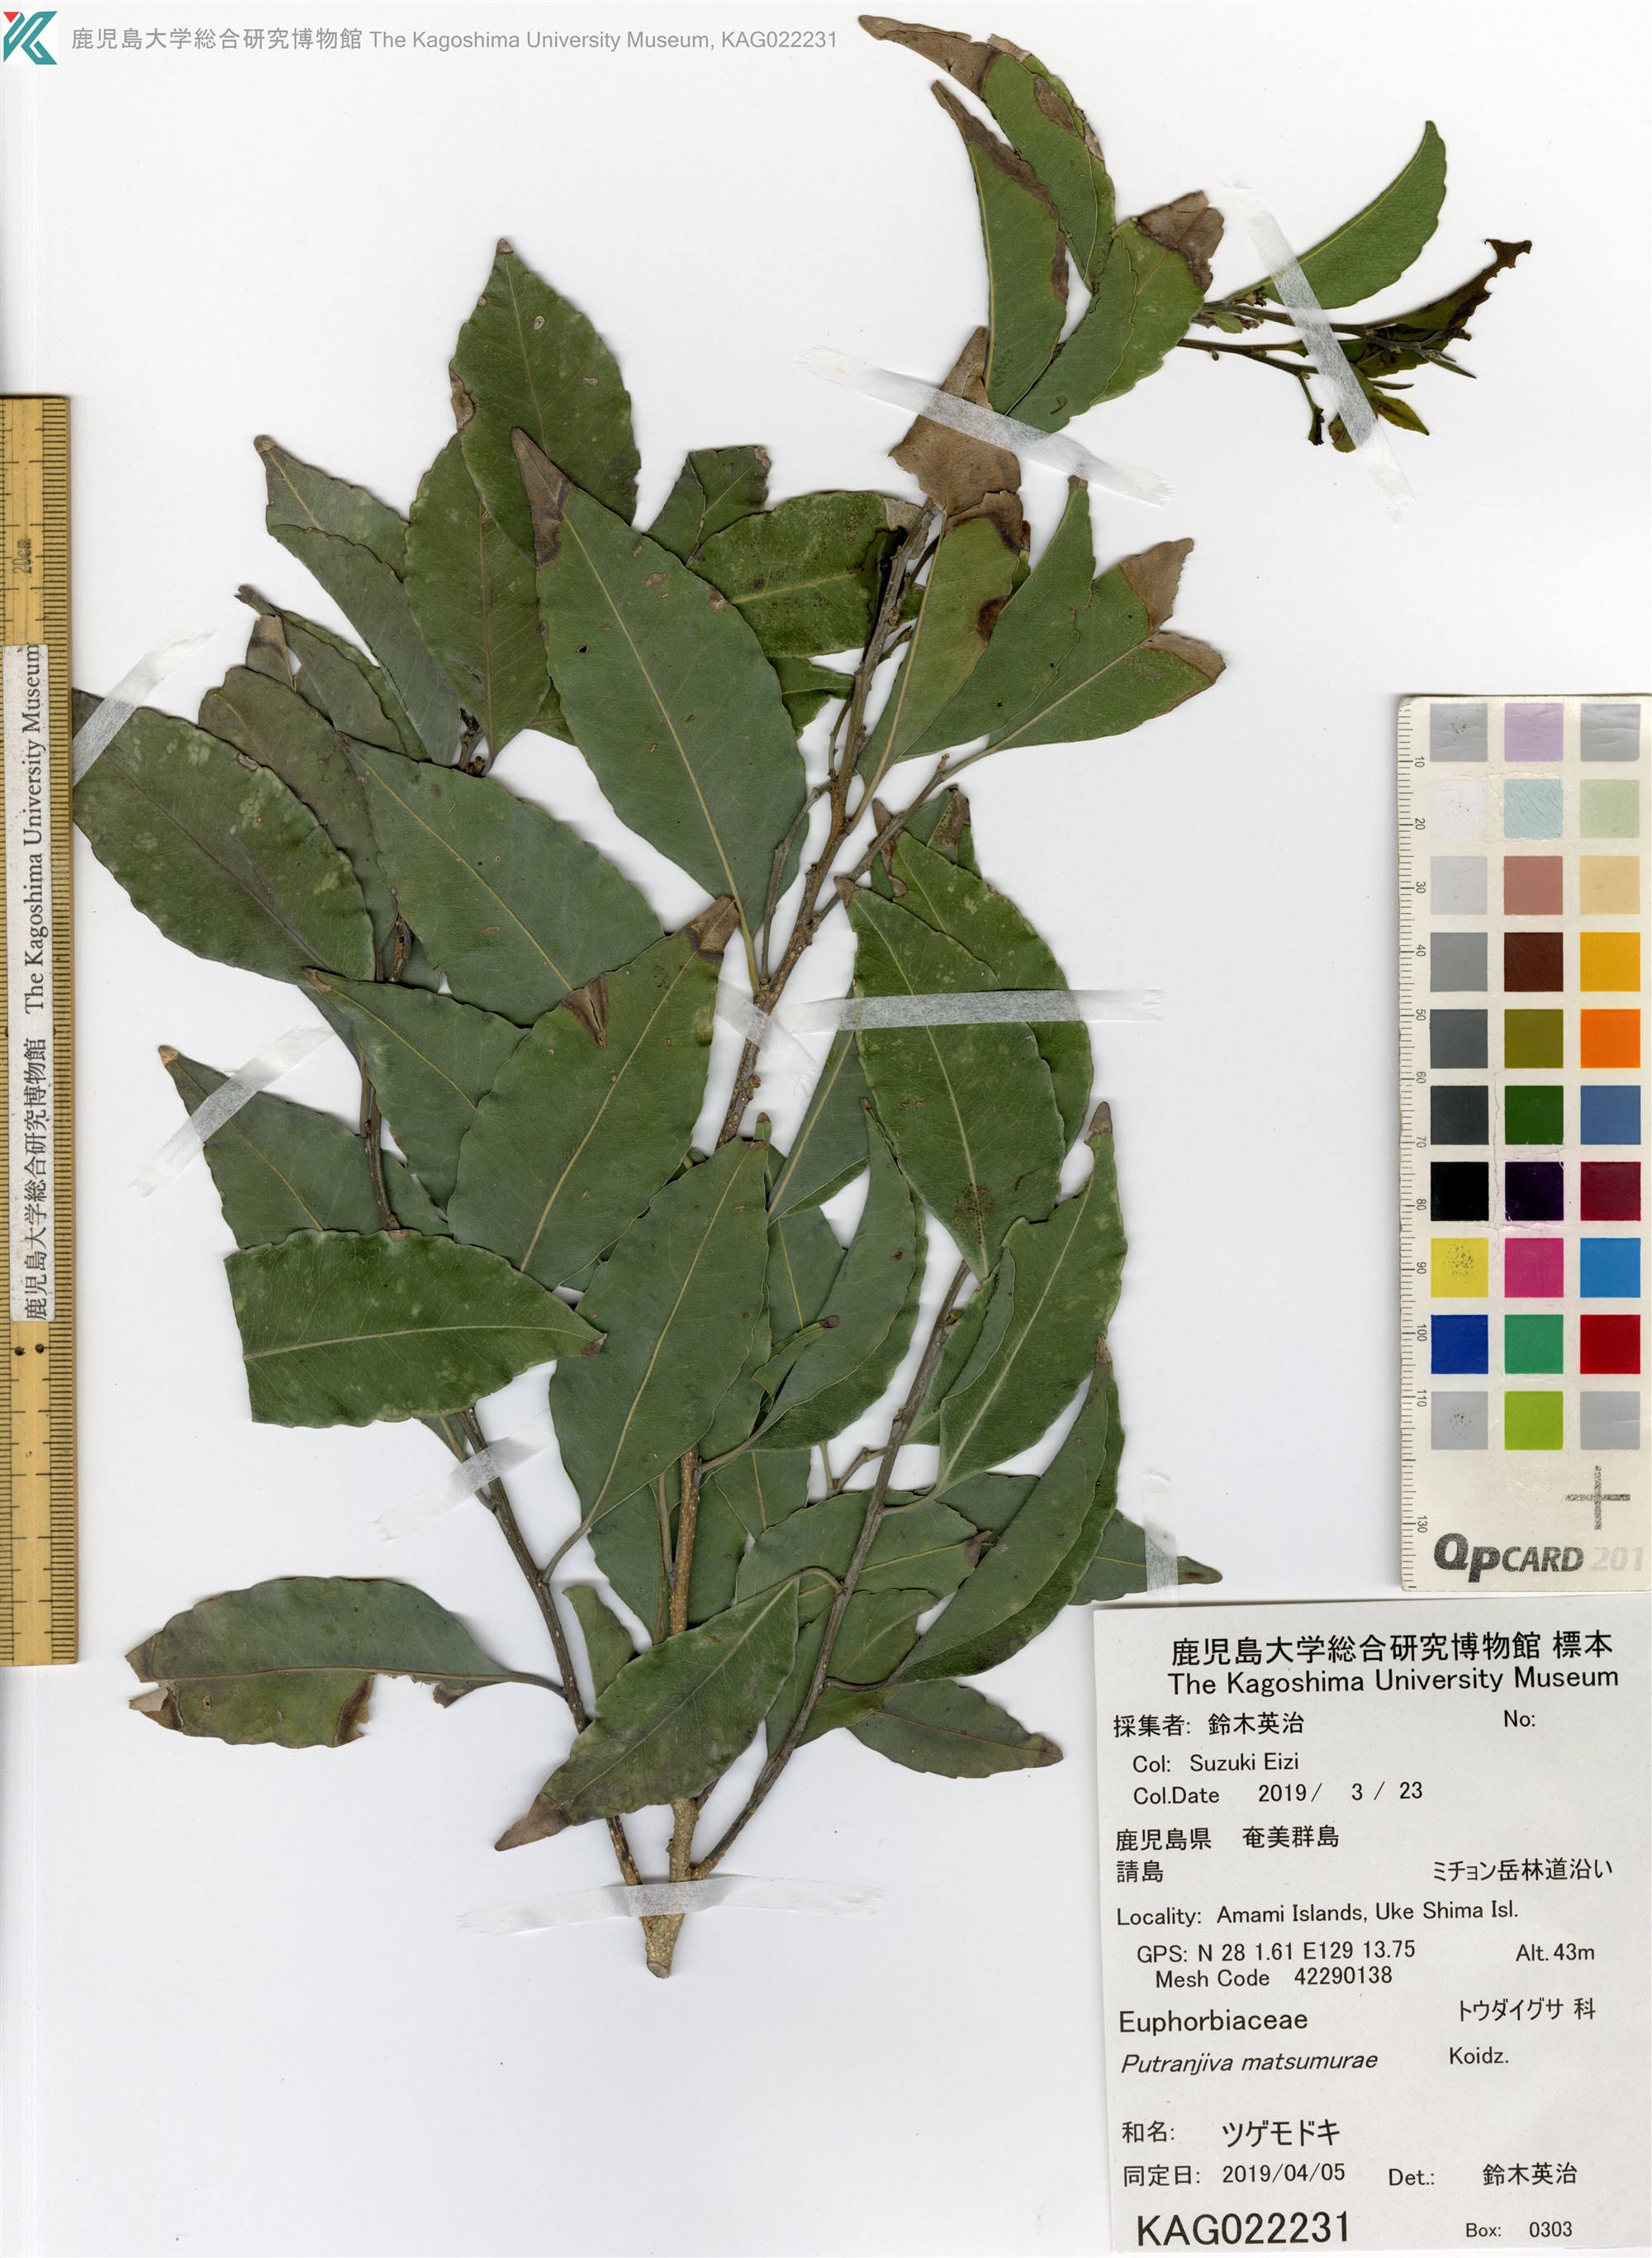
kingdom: Plantae
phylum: Tracheophyta
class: Magnoliopsida
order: Malpighiales
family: Putranjivaceae
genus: Putranjiva
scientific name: Putranjiva matsumurae
